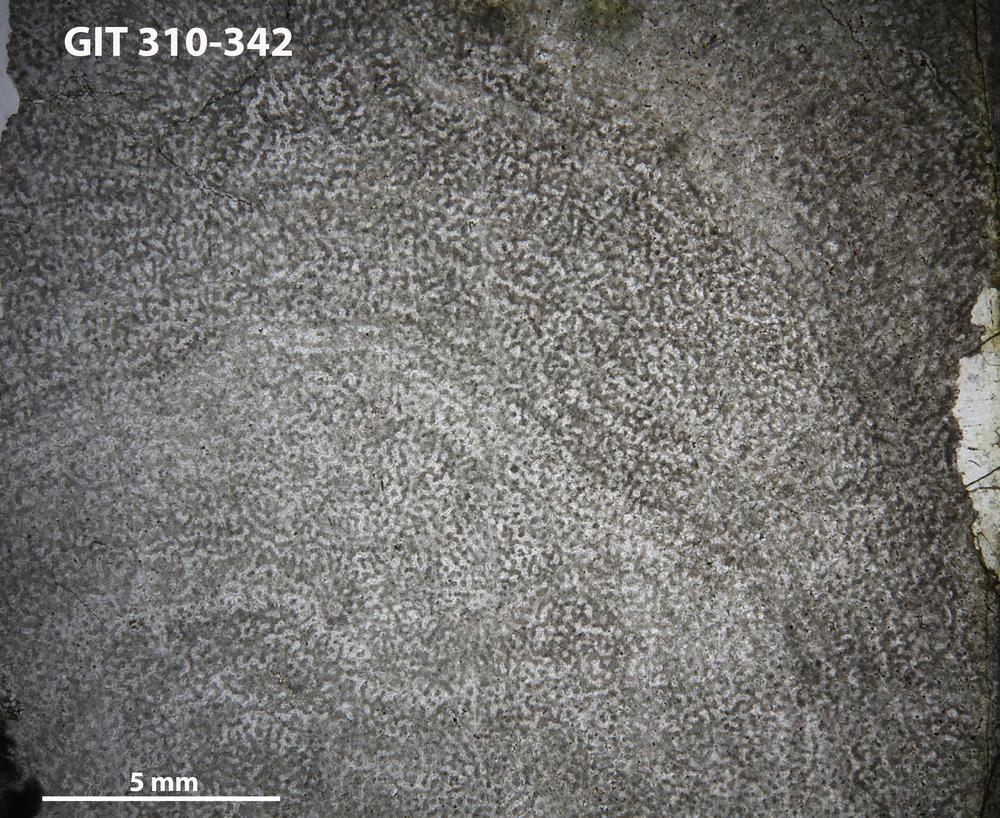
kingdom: Animalia
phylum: Porifera
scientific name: Porifera
